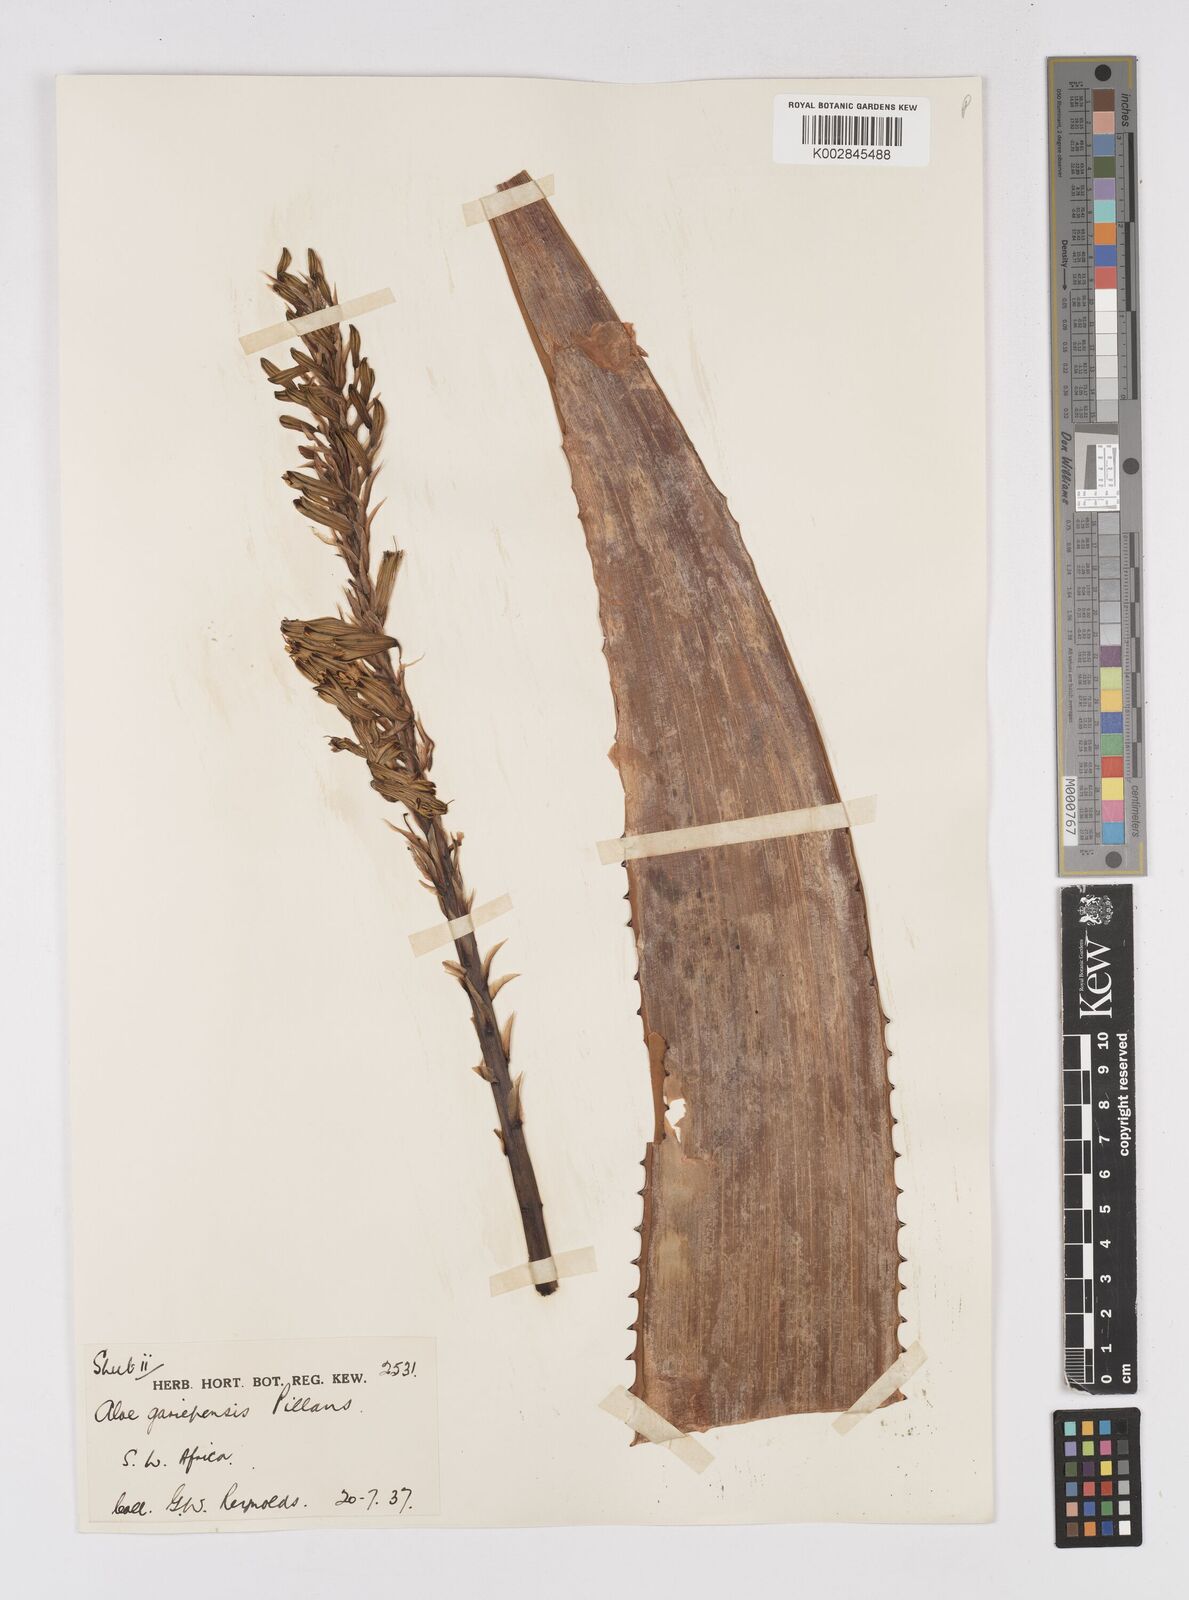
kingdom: Plantae
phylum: Tracheophyta
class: Liliopsida
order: Asparagales
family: Asphodelaceae
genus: Aloe
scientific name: Aloe gariepensis
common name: Orange river aloe
